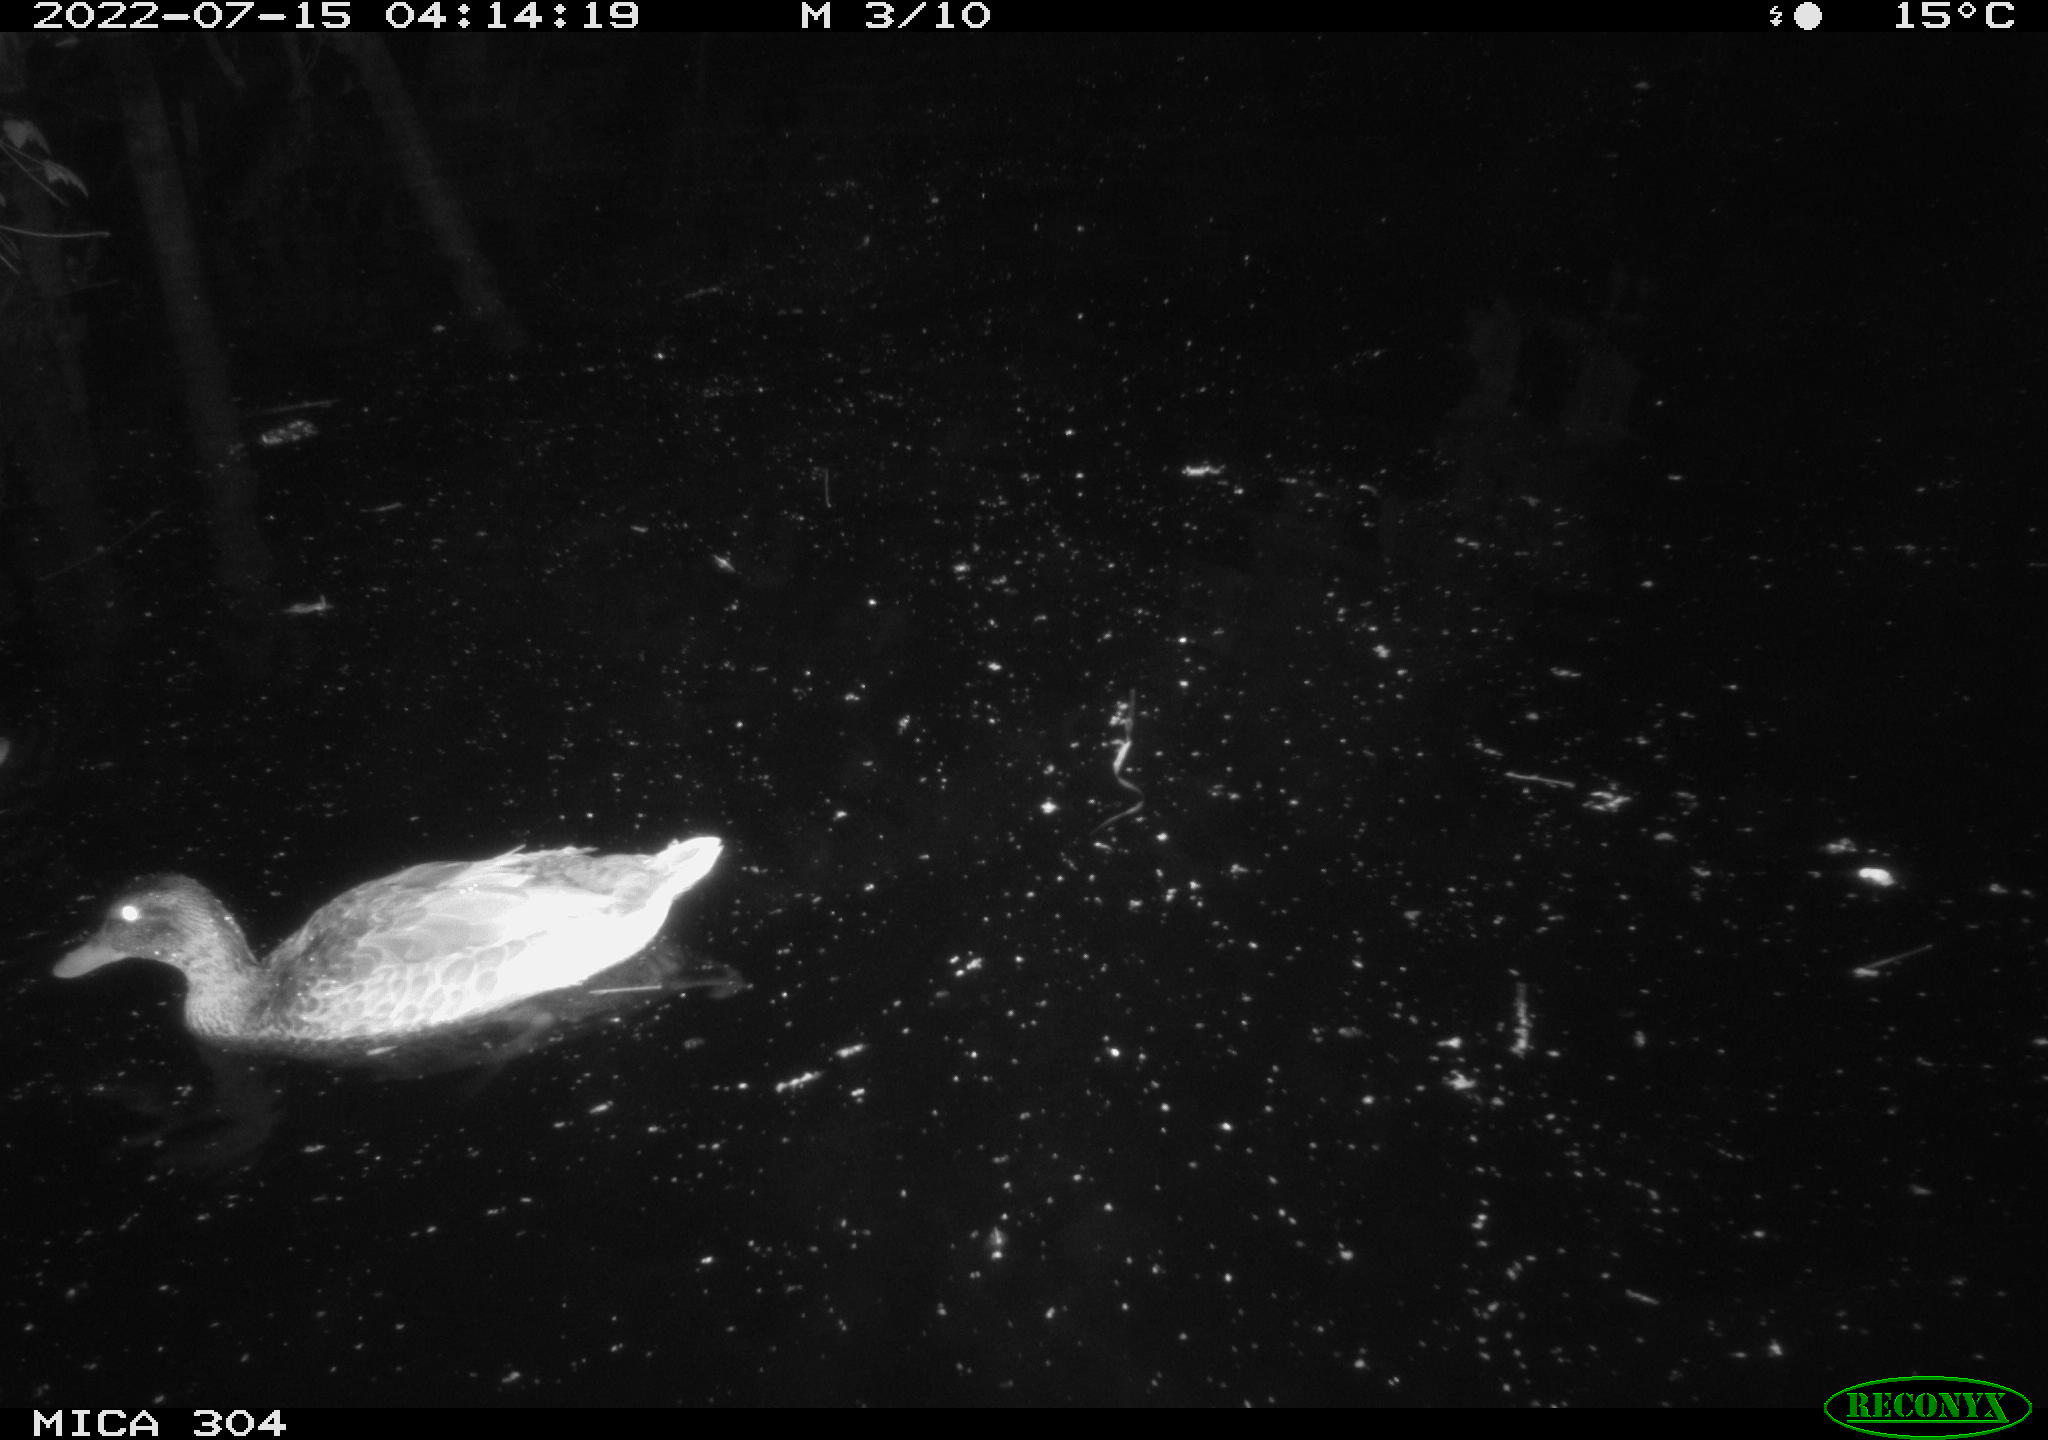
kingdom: Animalia
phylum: Chordata
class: Aves
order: Anseriformes
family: Anatidae
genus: Anas
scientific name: Anas platyrhynchos
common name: Mallard
